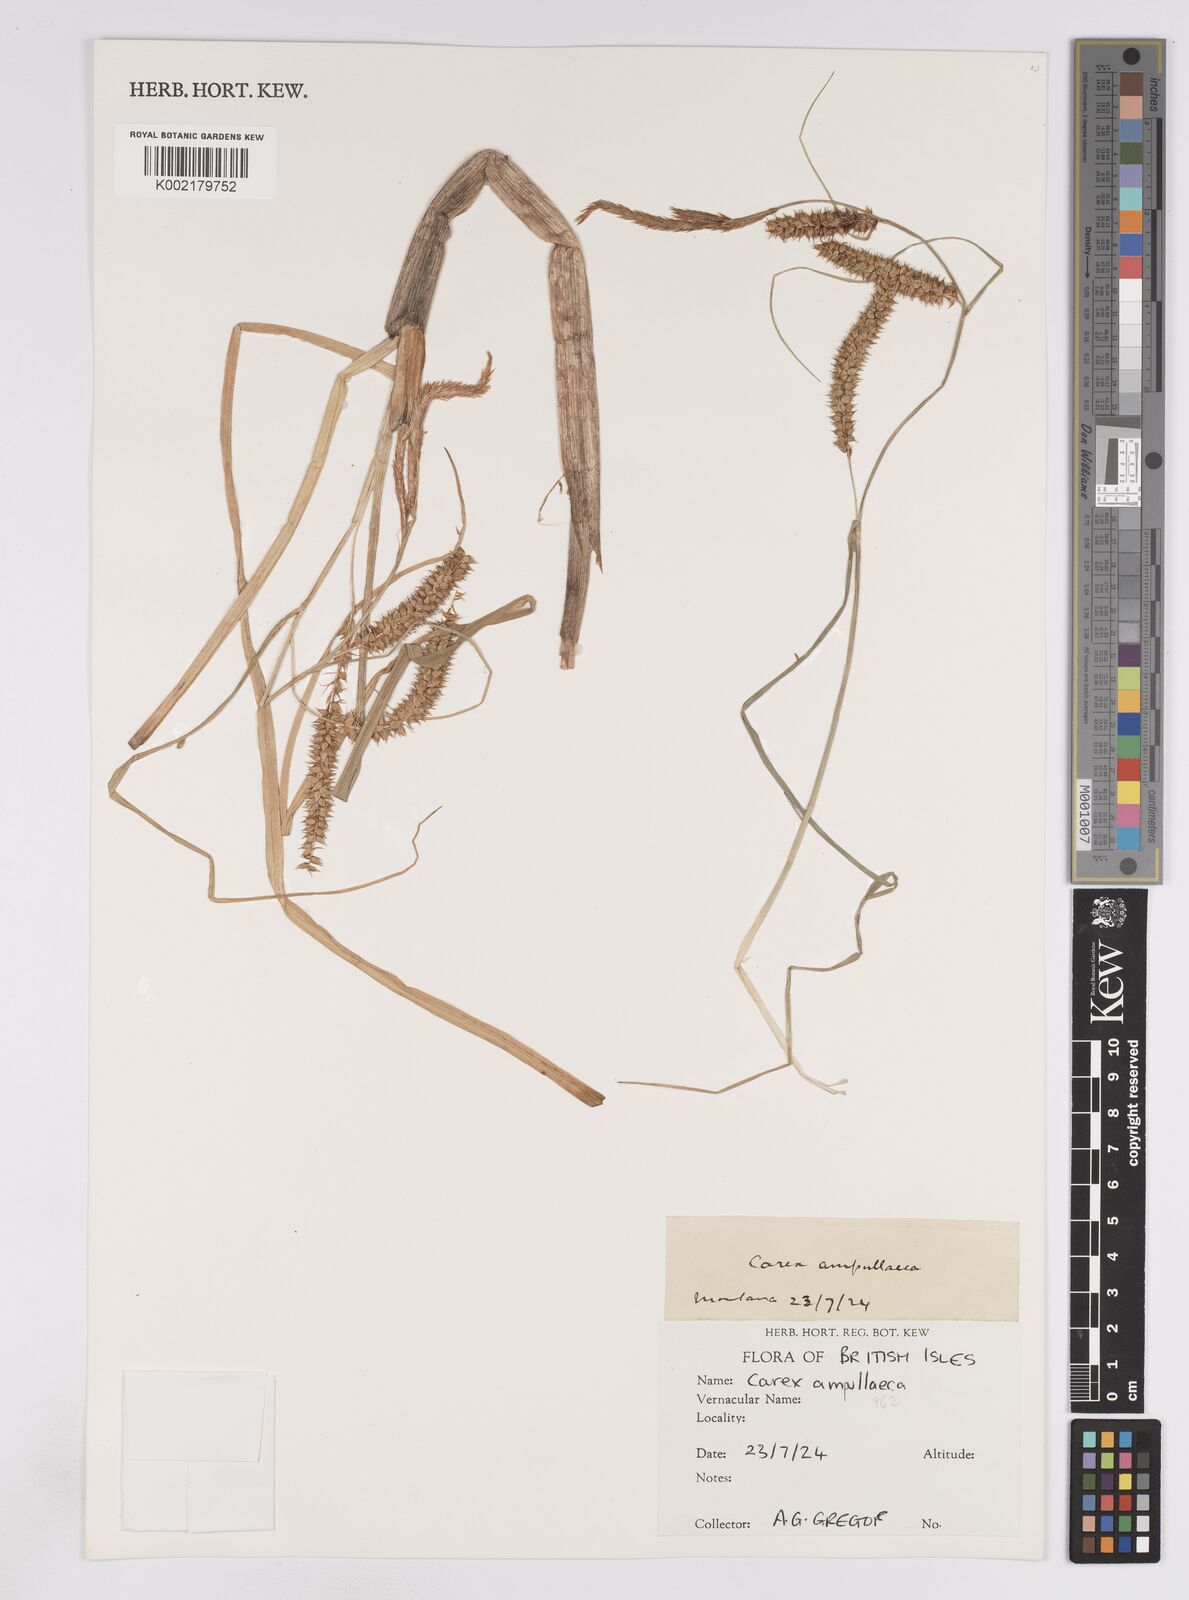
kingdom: Plantae
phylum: Tracheophyta
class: Liliopsida
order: Poales
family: Cyperaceae
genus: Carex
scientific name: Carex rostrata
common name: Bottle sedge
